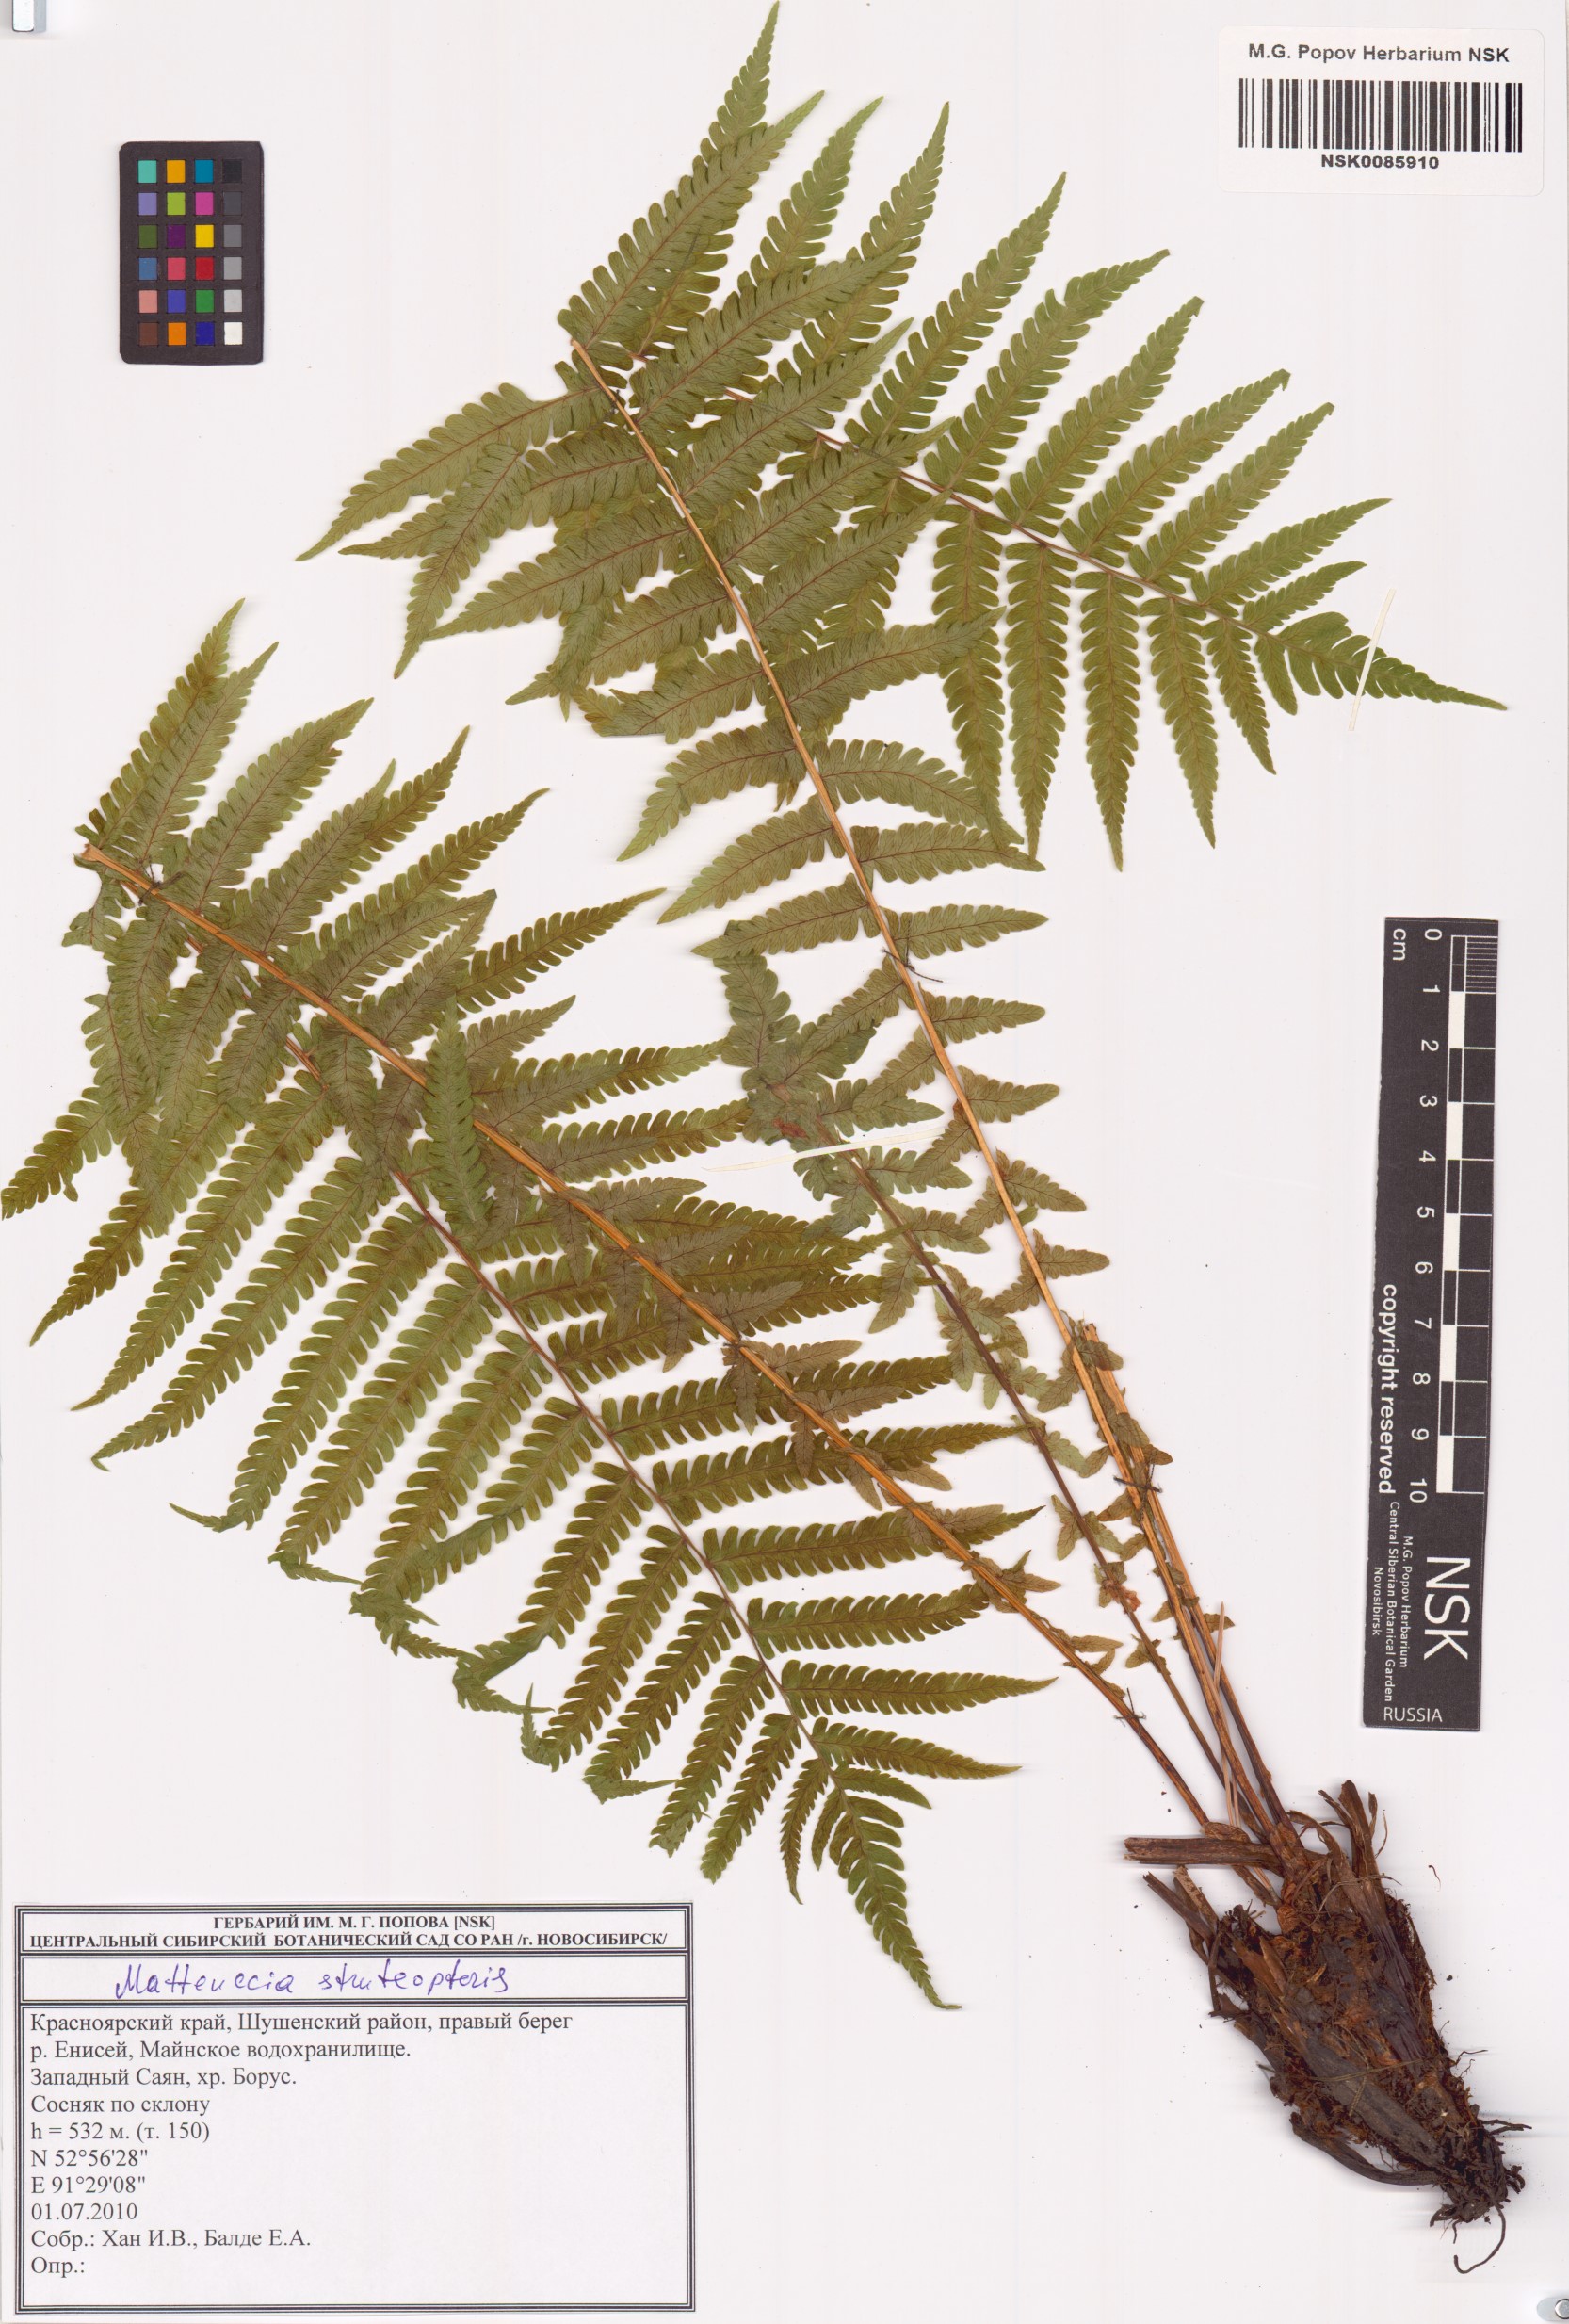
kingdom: Plantae
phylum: Tracheophyta
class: Polypodiopsida
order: Polypodiales
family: Onocleaceae
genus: Matteuccia
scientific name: Matteuccia struthiopteris
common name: Ostrich fern
